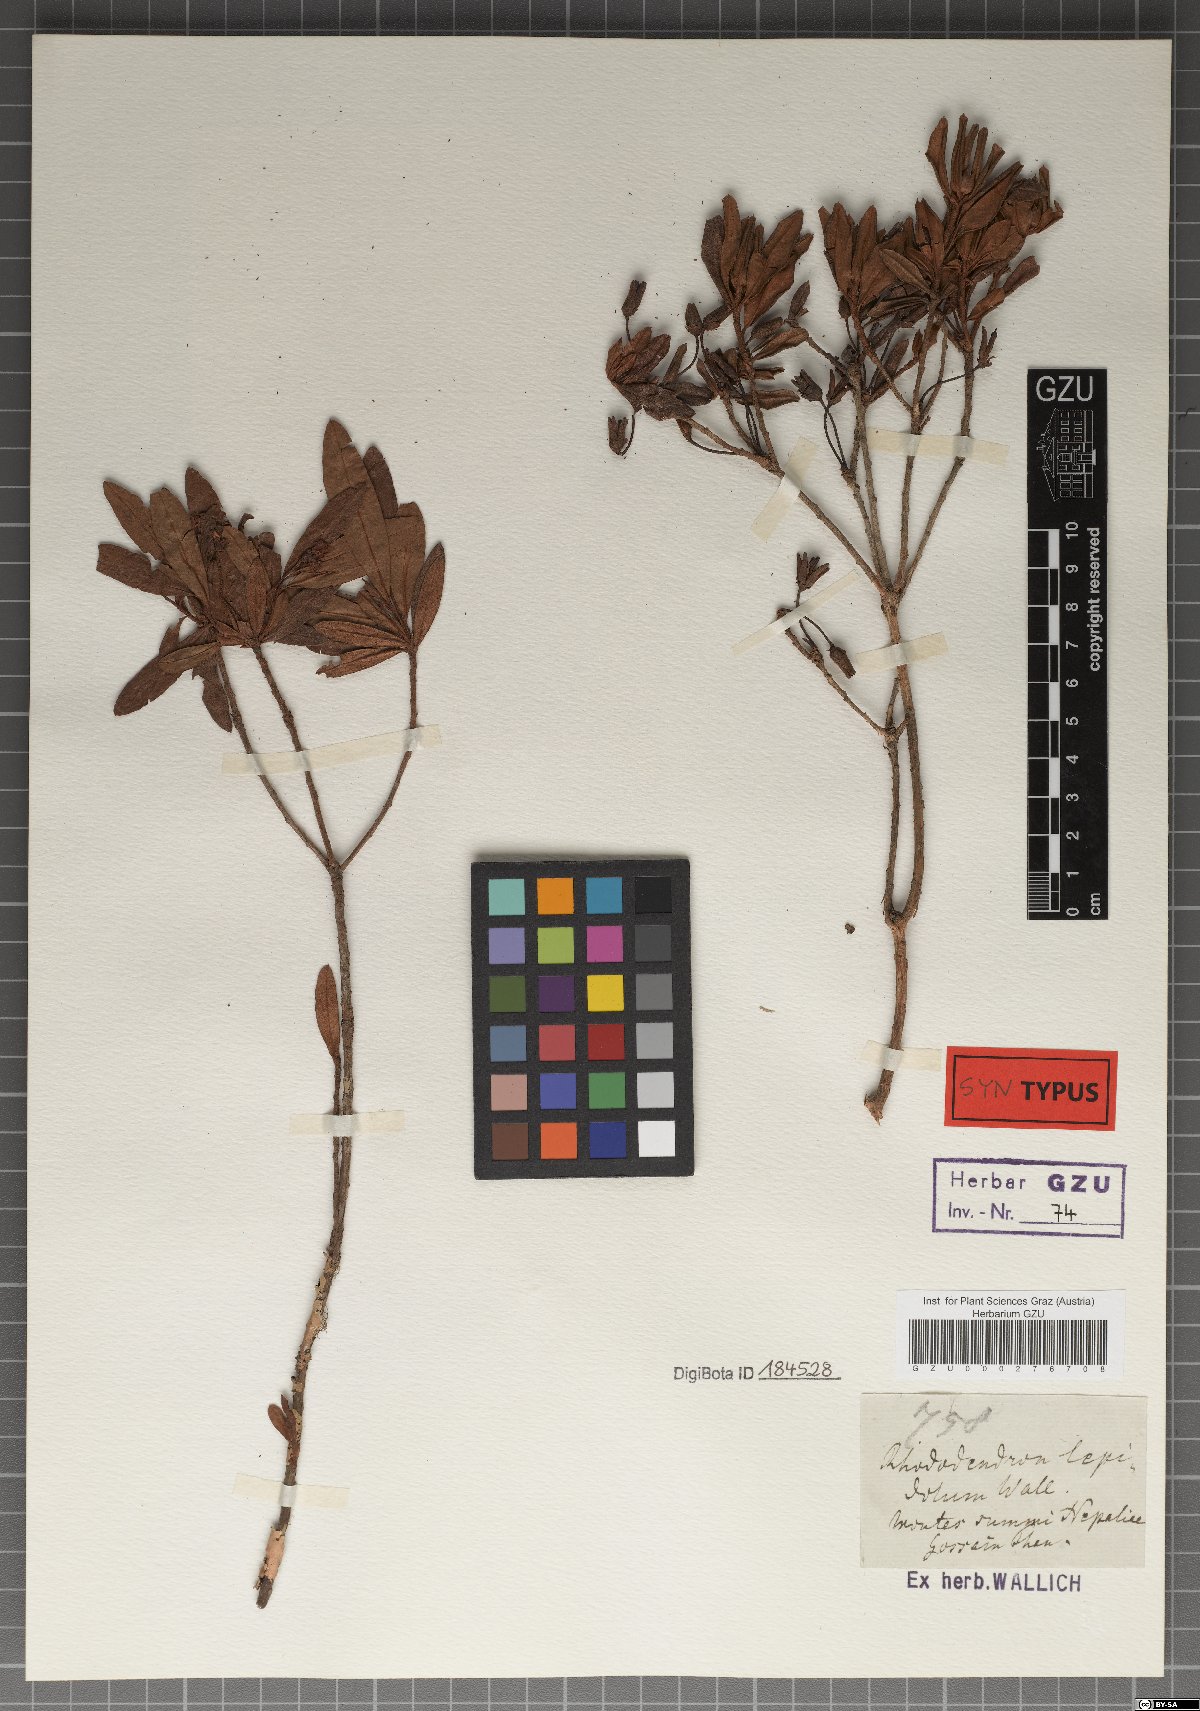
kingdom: Plantae
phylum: Tracheophyta
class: Magnoliopsida
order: Ericales
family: Ericaceae
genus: Rhododendron
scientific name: Rhododendron lepidotum
